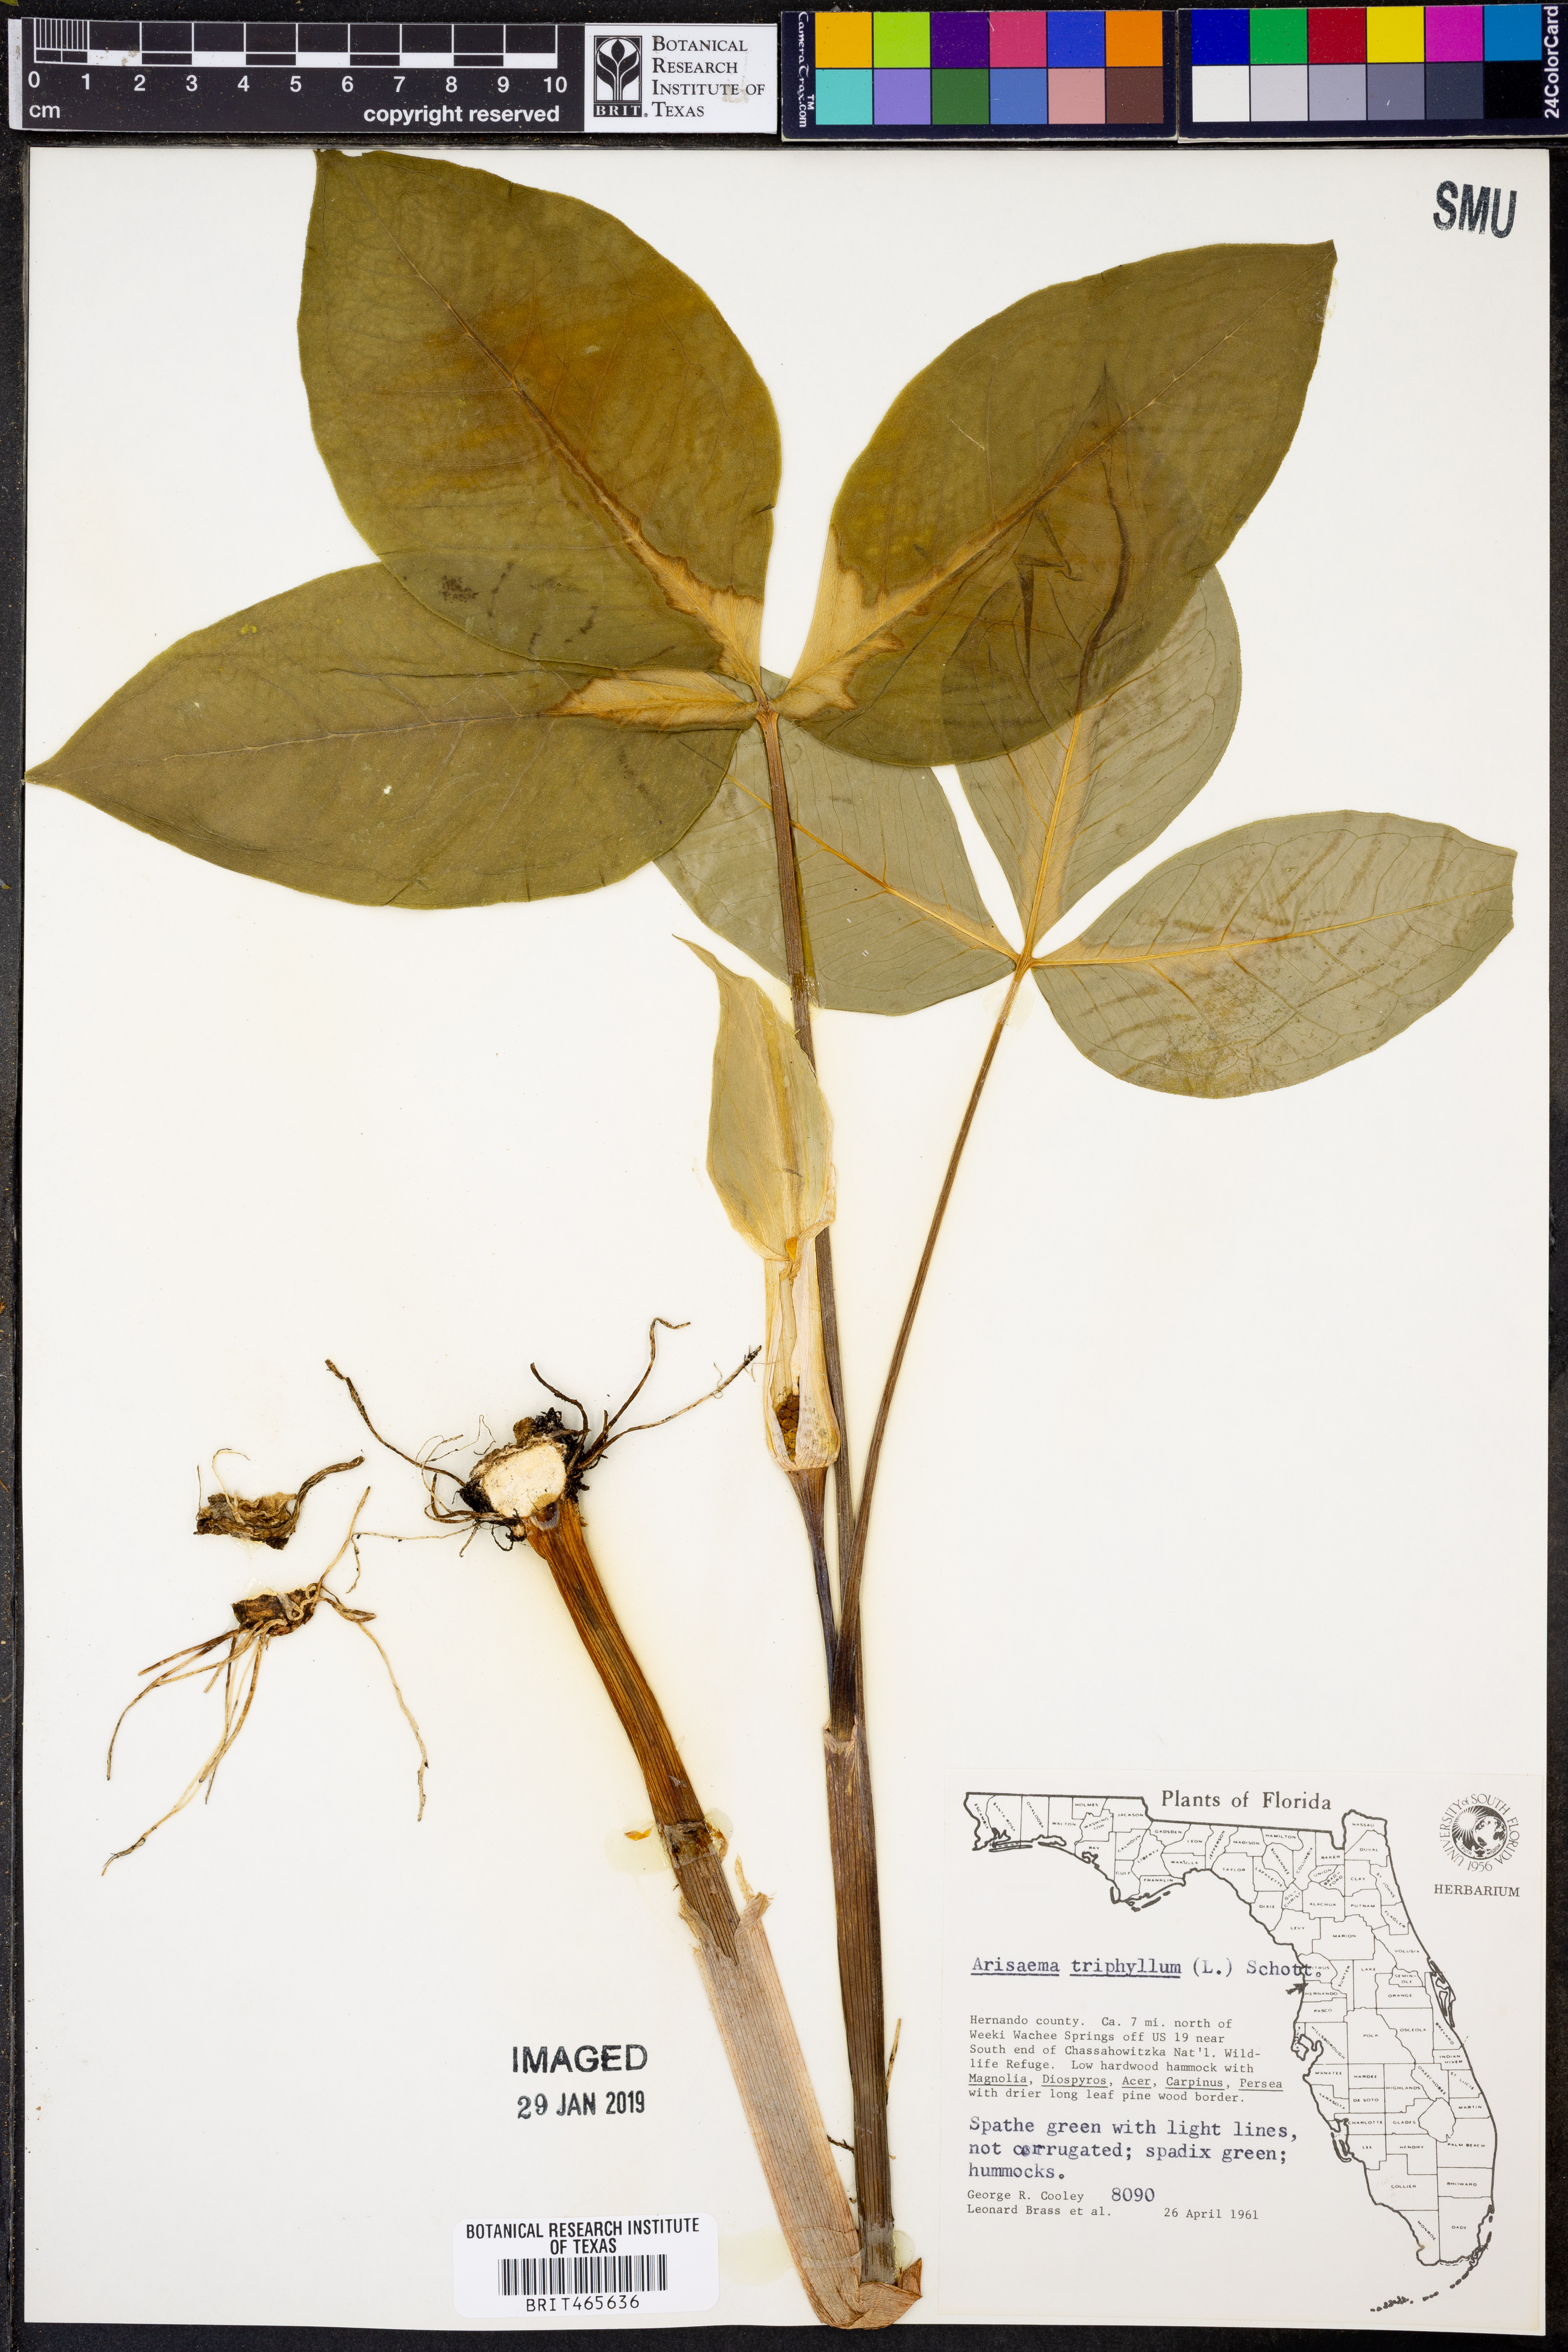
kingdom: Plantae
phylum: Tracheophyta
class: Liliopsida
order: Alismatales
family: Araceae
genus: Arisaema
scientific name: Arisaema triphyllum
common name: Jack-in-the-pulpit
